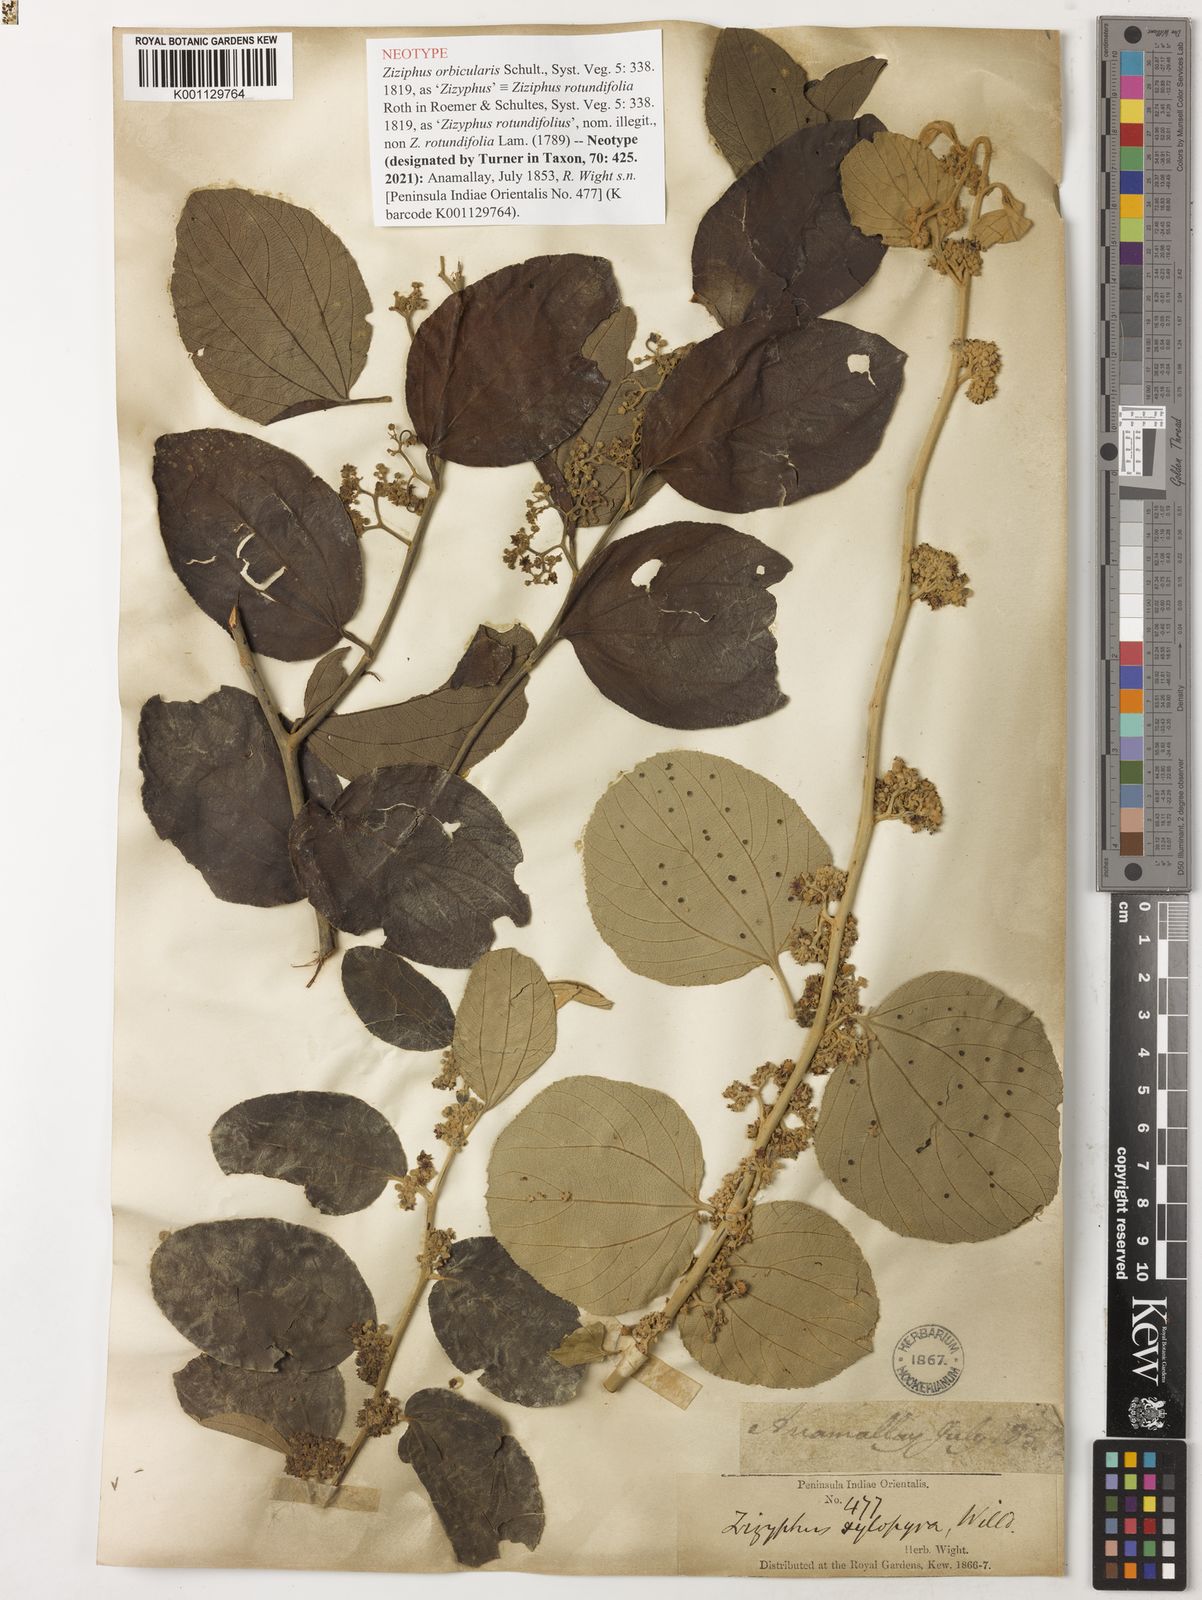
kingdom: Plantae
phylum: Tracheophyta
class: Magnoliopsida
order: Rosales
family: Rhamnaceae
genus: Ziziphus
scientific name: Ziziphus xylopyrus
